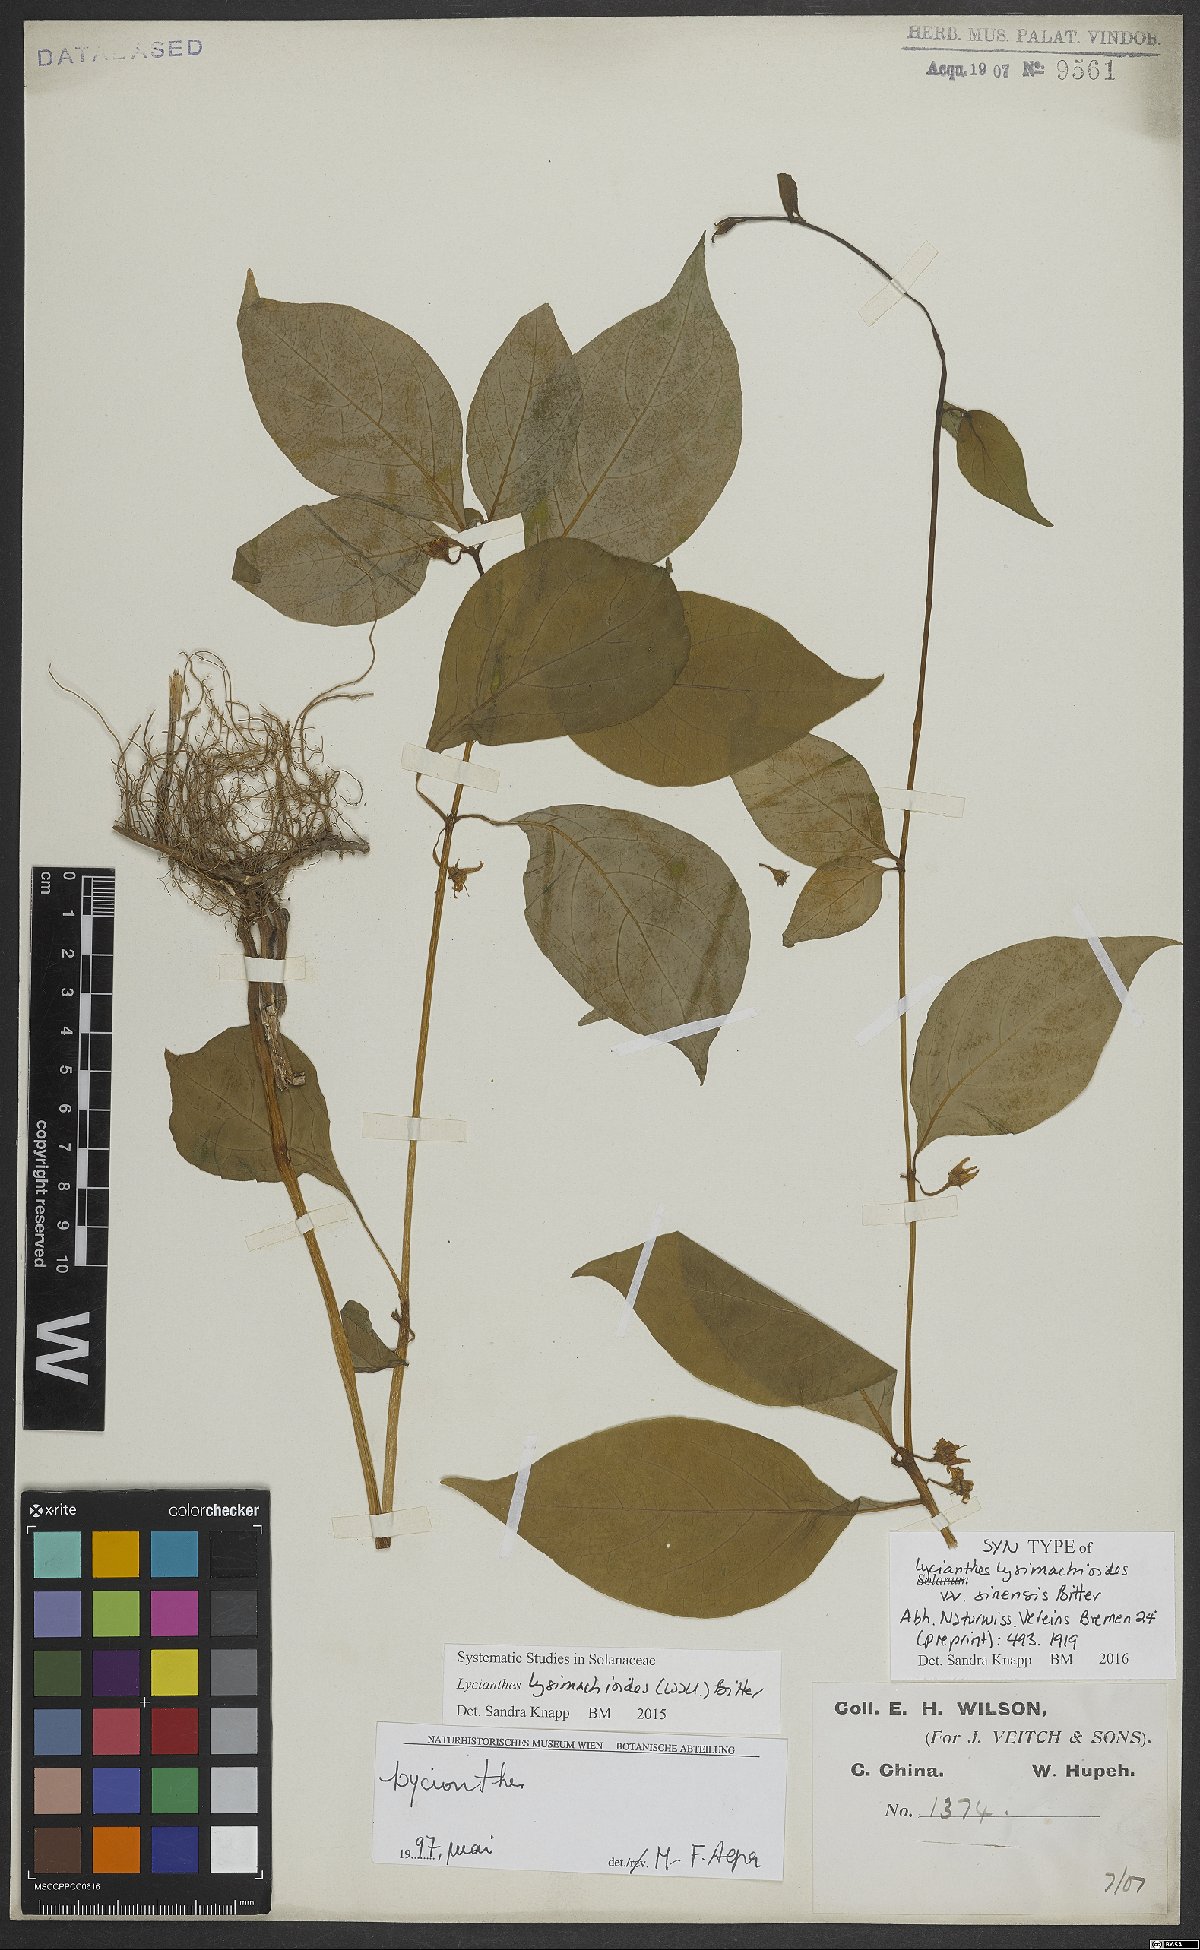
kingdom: Plantae
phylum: Tracheophyta
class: Magnoliopsida
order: Solanales
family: Solanaceae
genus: Lycianthes
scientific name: Lycianthes lysimachioides
